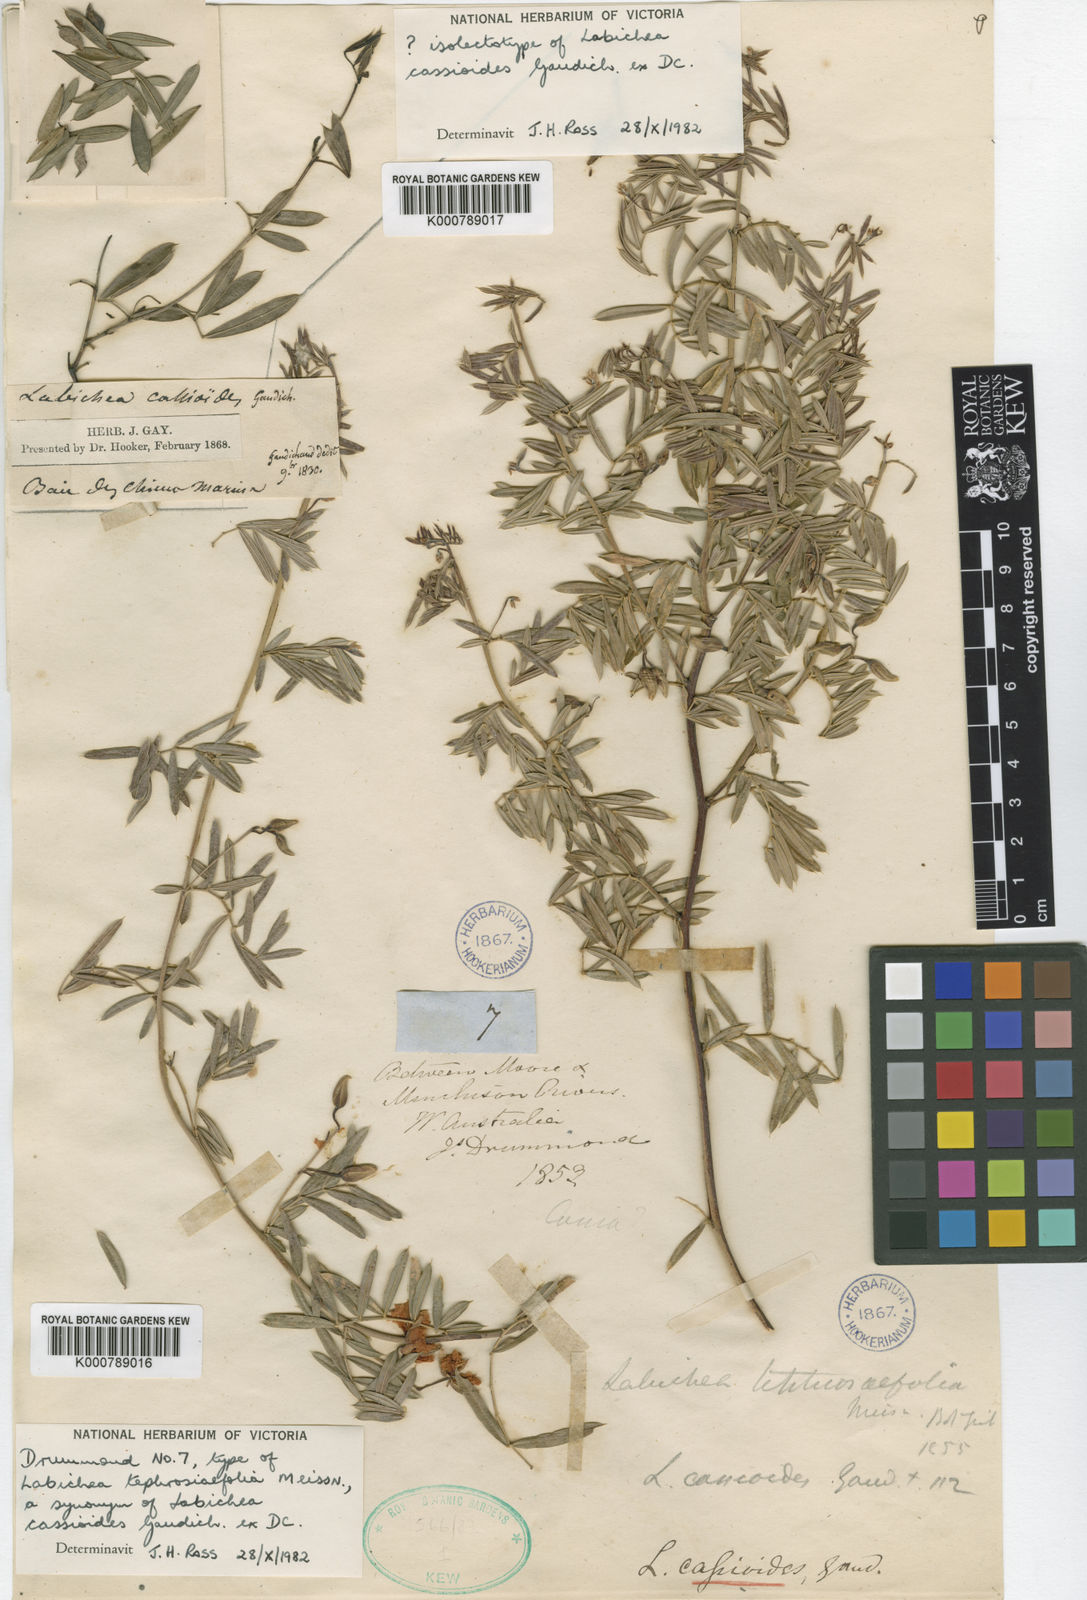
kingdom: Plantae
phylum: Tracheophyta
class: Magnoliopsida
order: Fabales
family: Fabaceae
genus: Labichea
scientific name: Labichea cassioides
